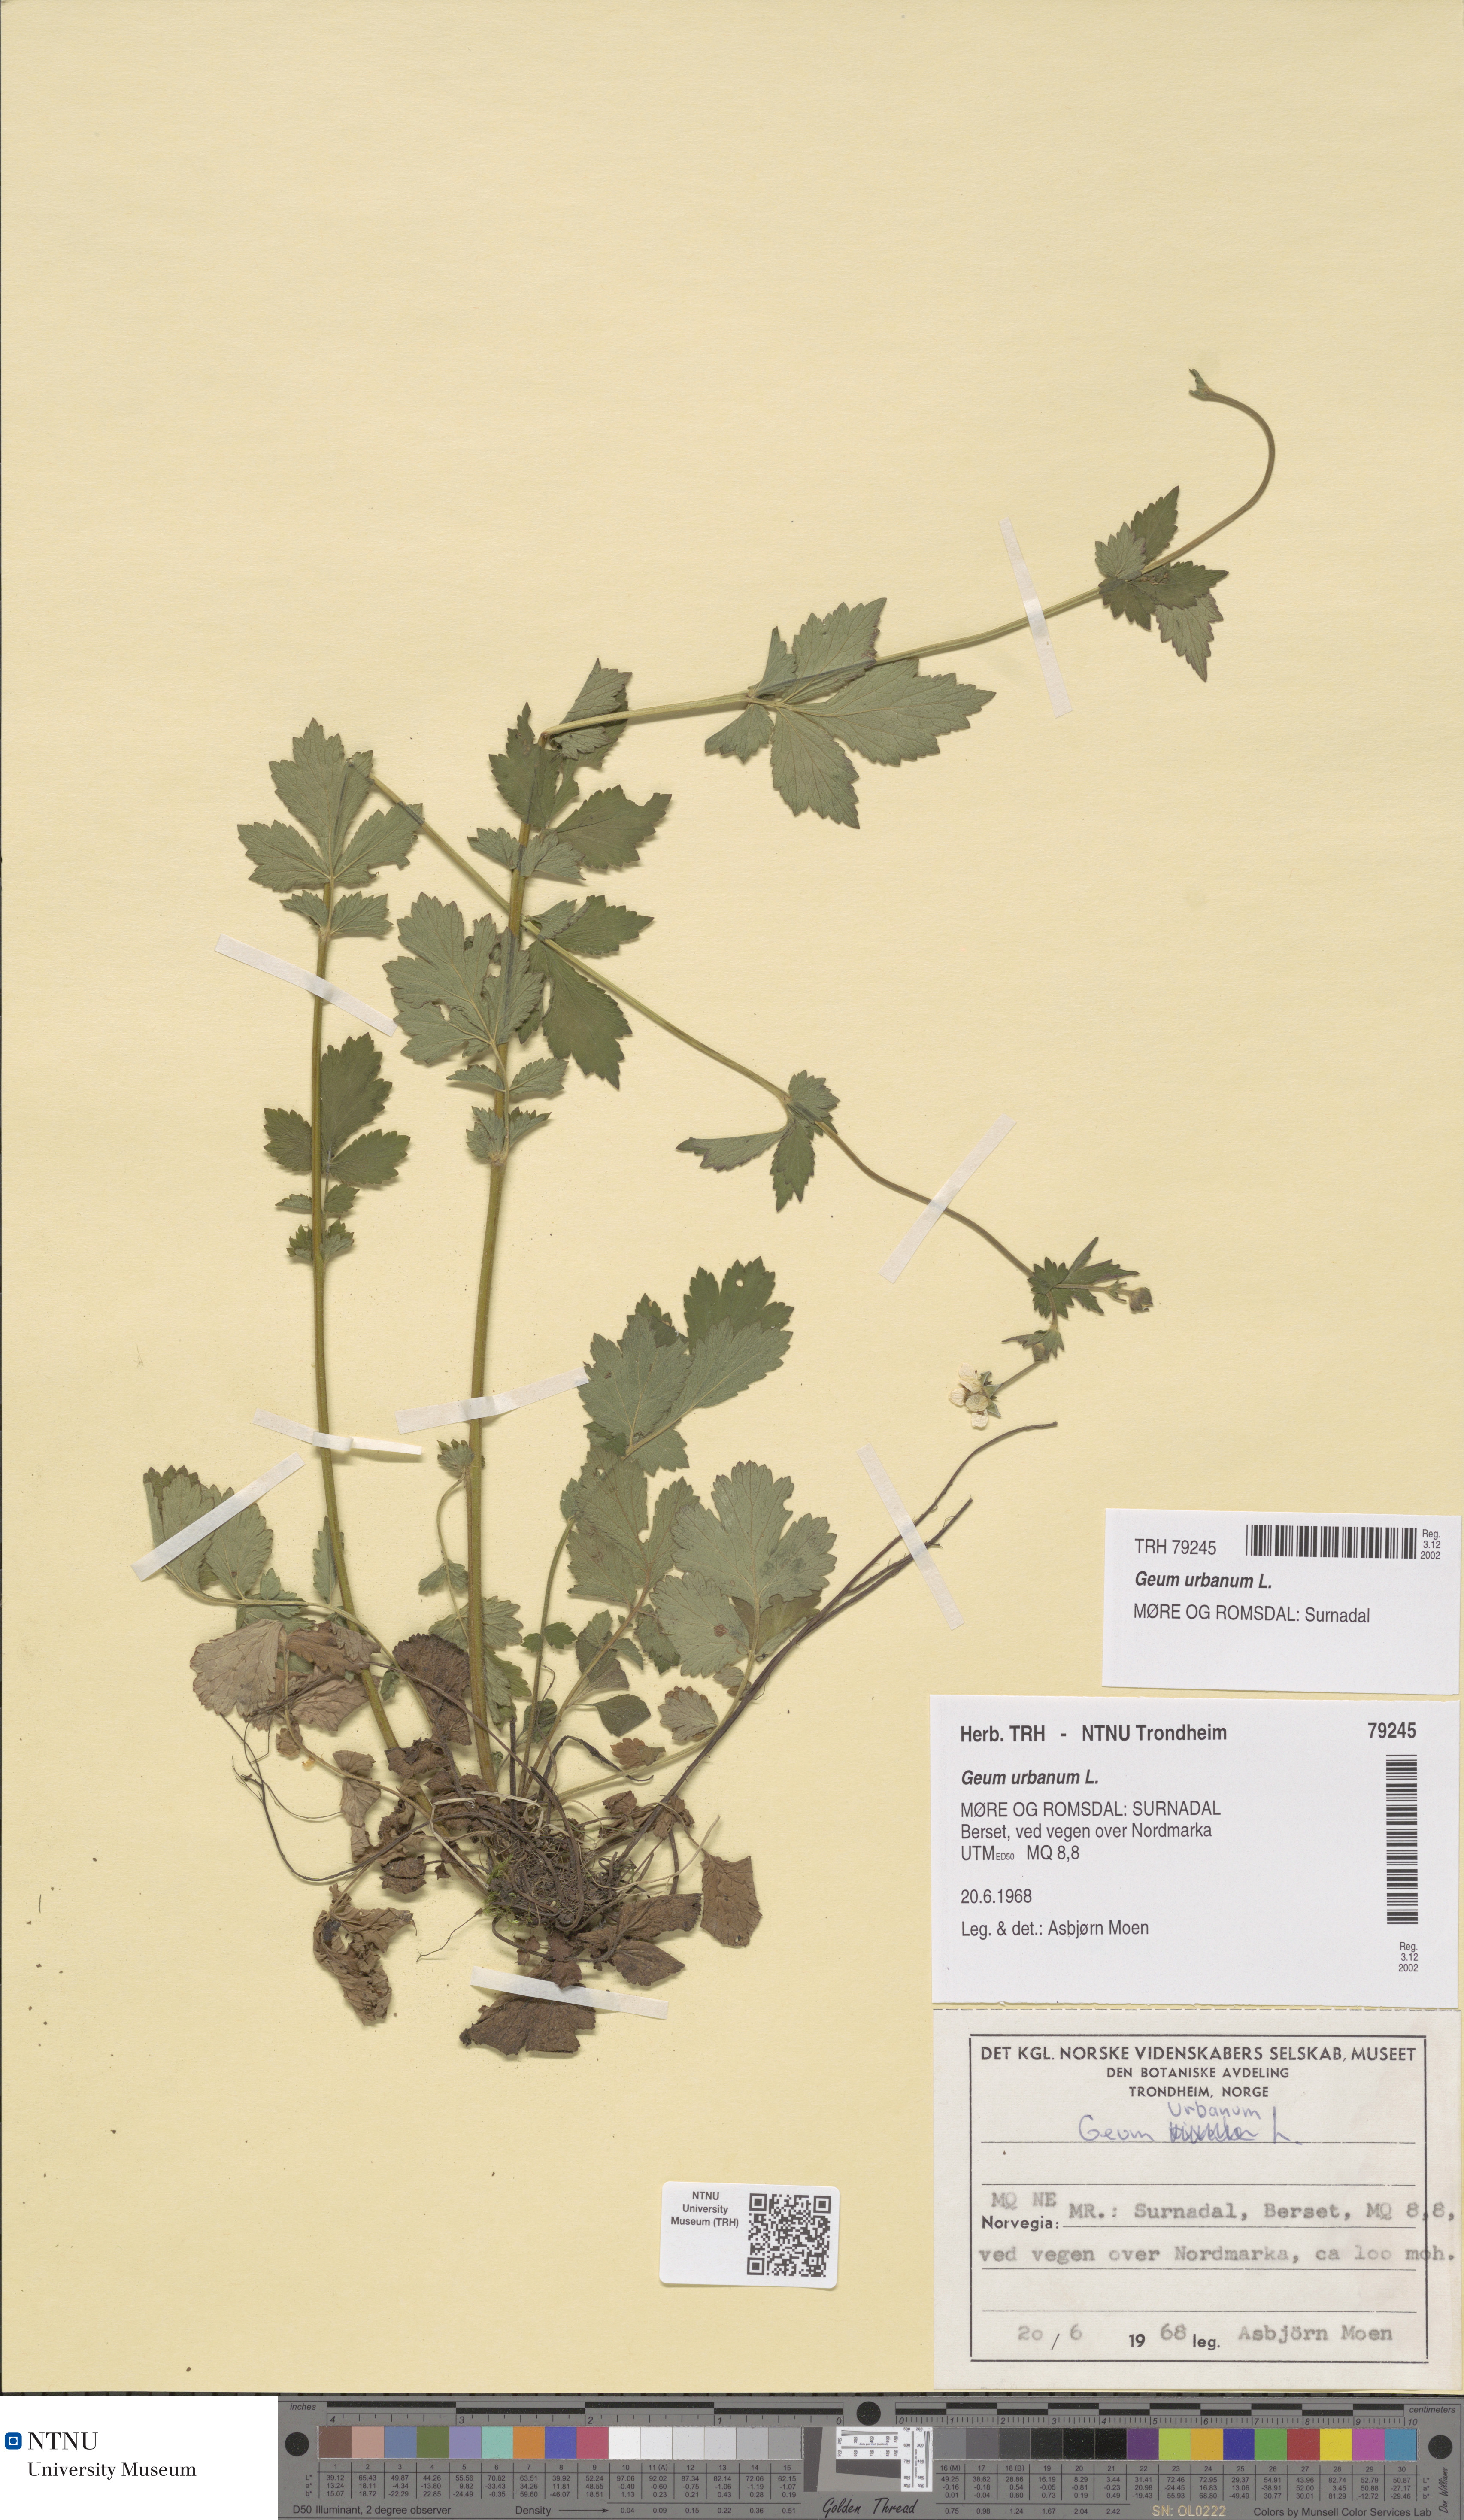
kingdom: Plantae
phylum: Tracheophyta
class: Magnoliopsida
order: Rosales
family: Rosaceae
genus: Geum
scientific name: Geum urbanum
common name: Wood avens
